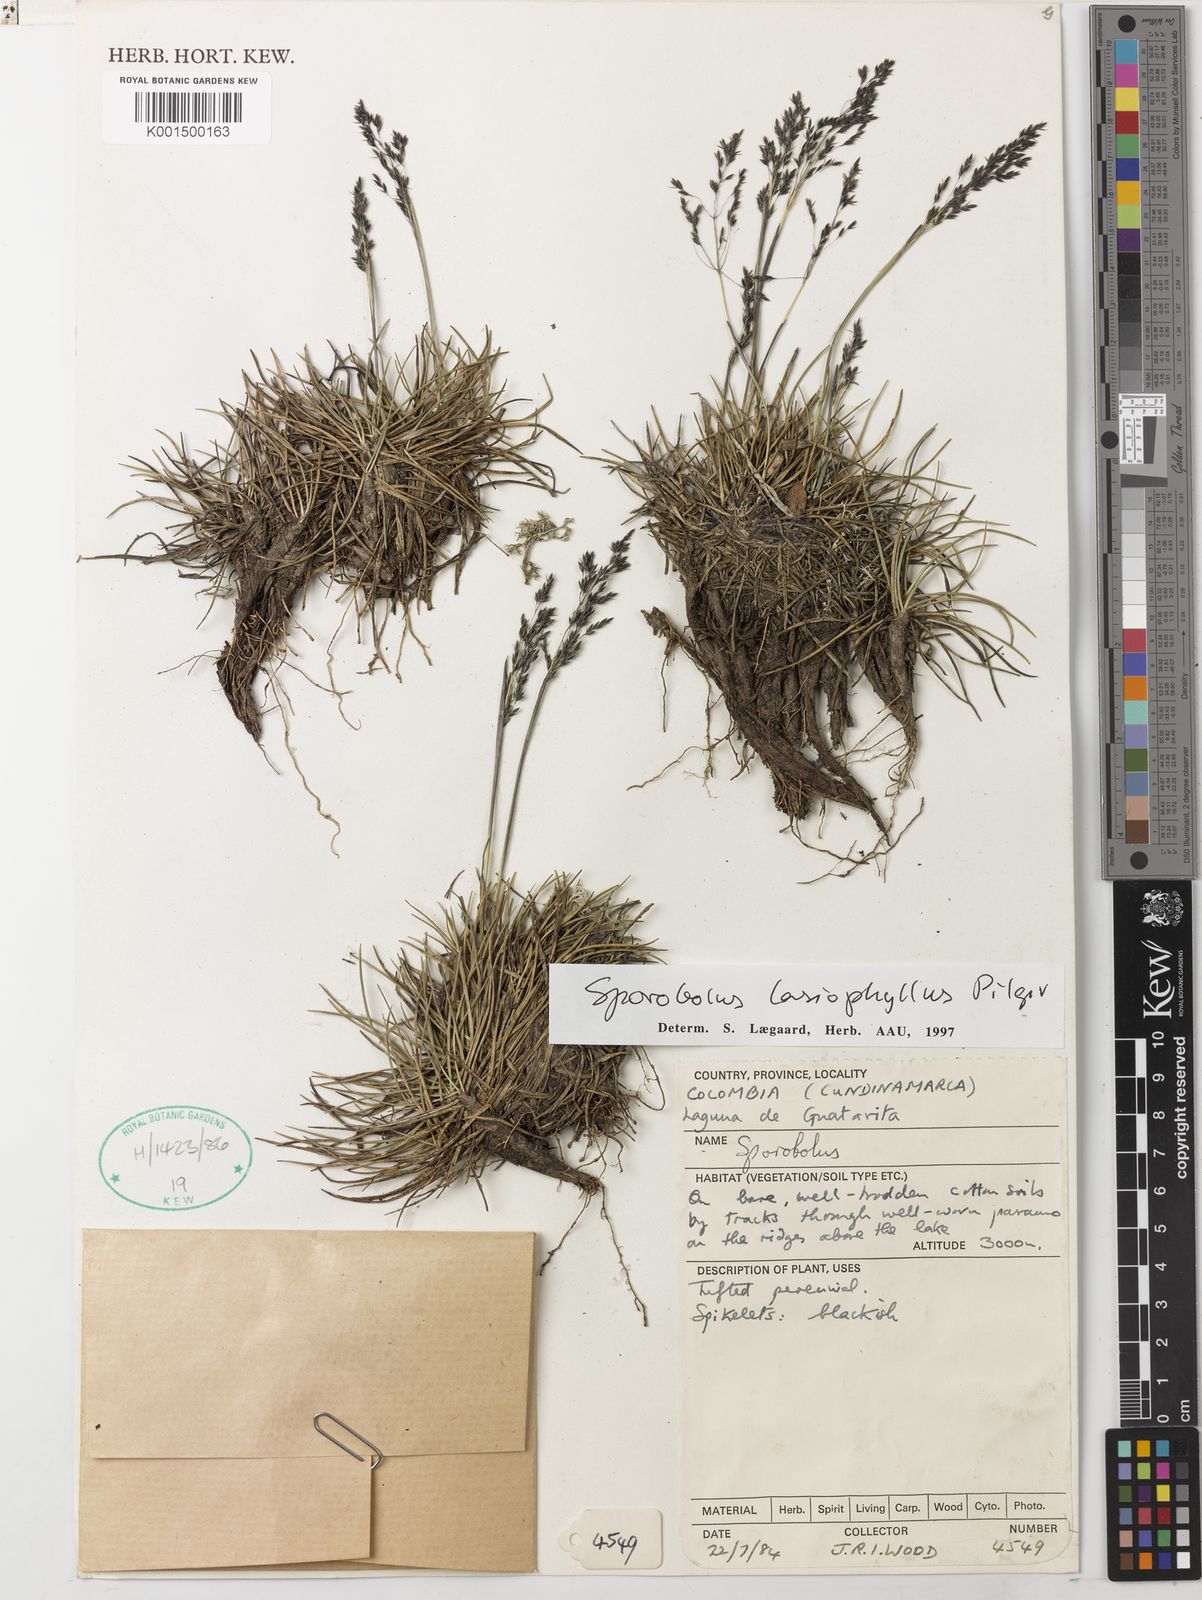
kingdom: Plantae
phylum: Tracheophyta
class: Liliopsida
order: Poales
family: Poaceae
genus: Sporobolus
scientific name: Sporobolus lasiophyllus
